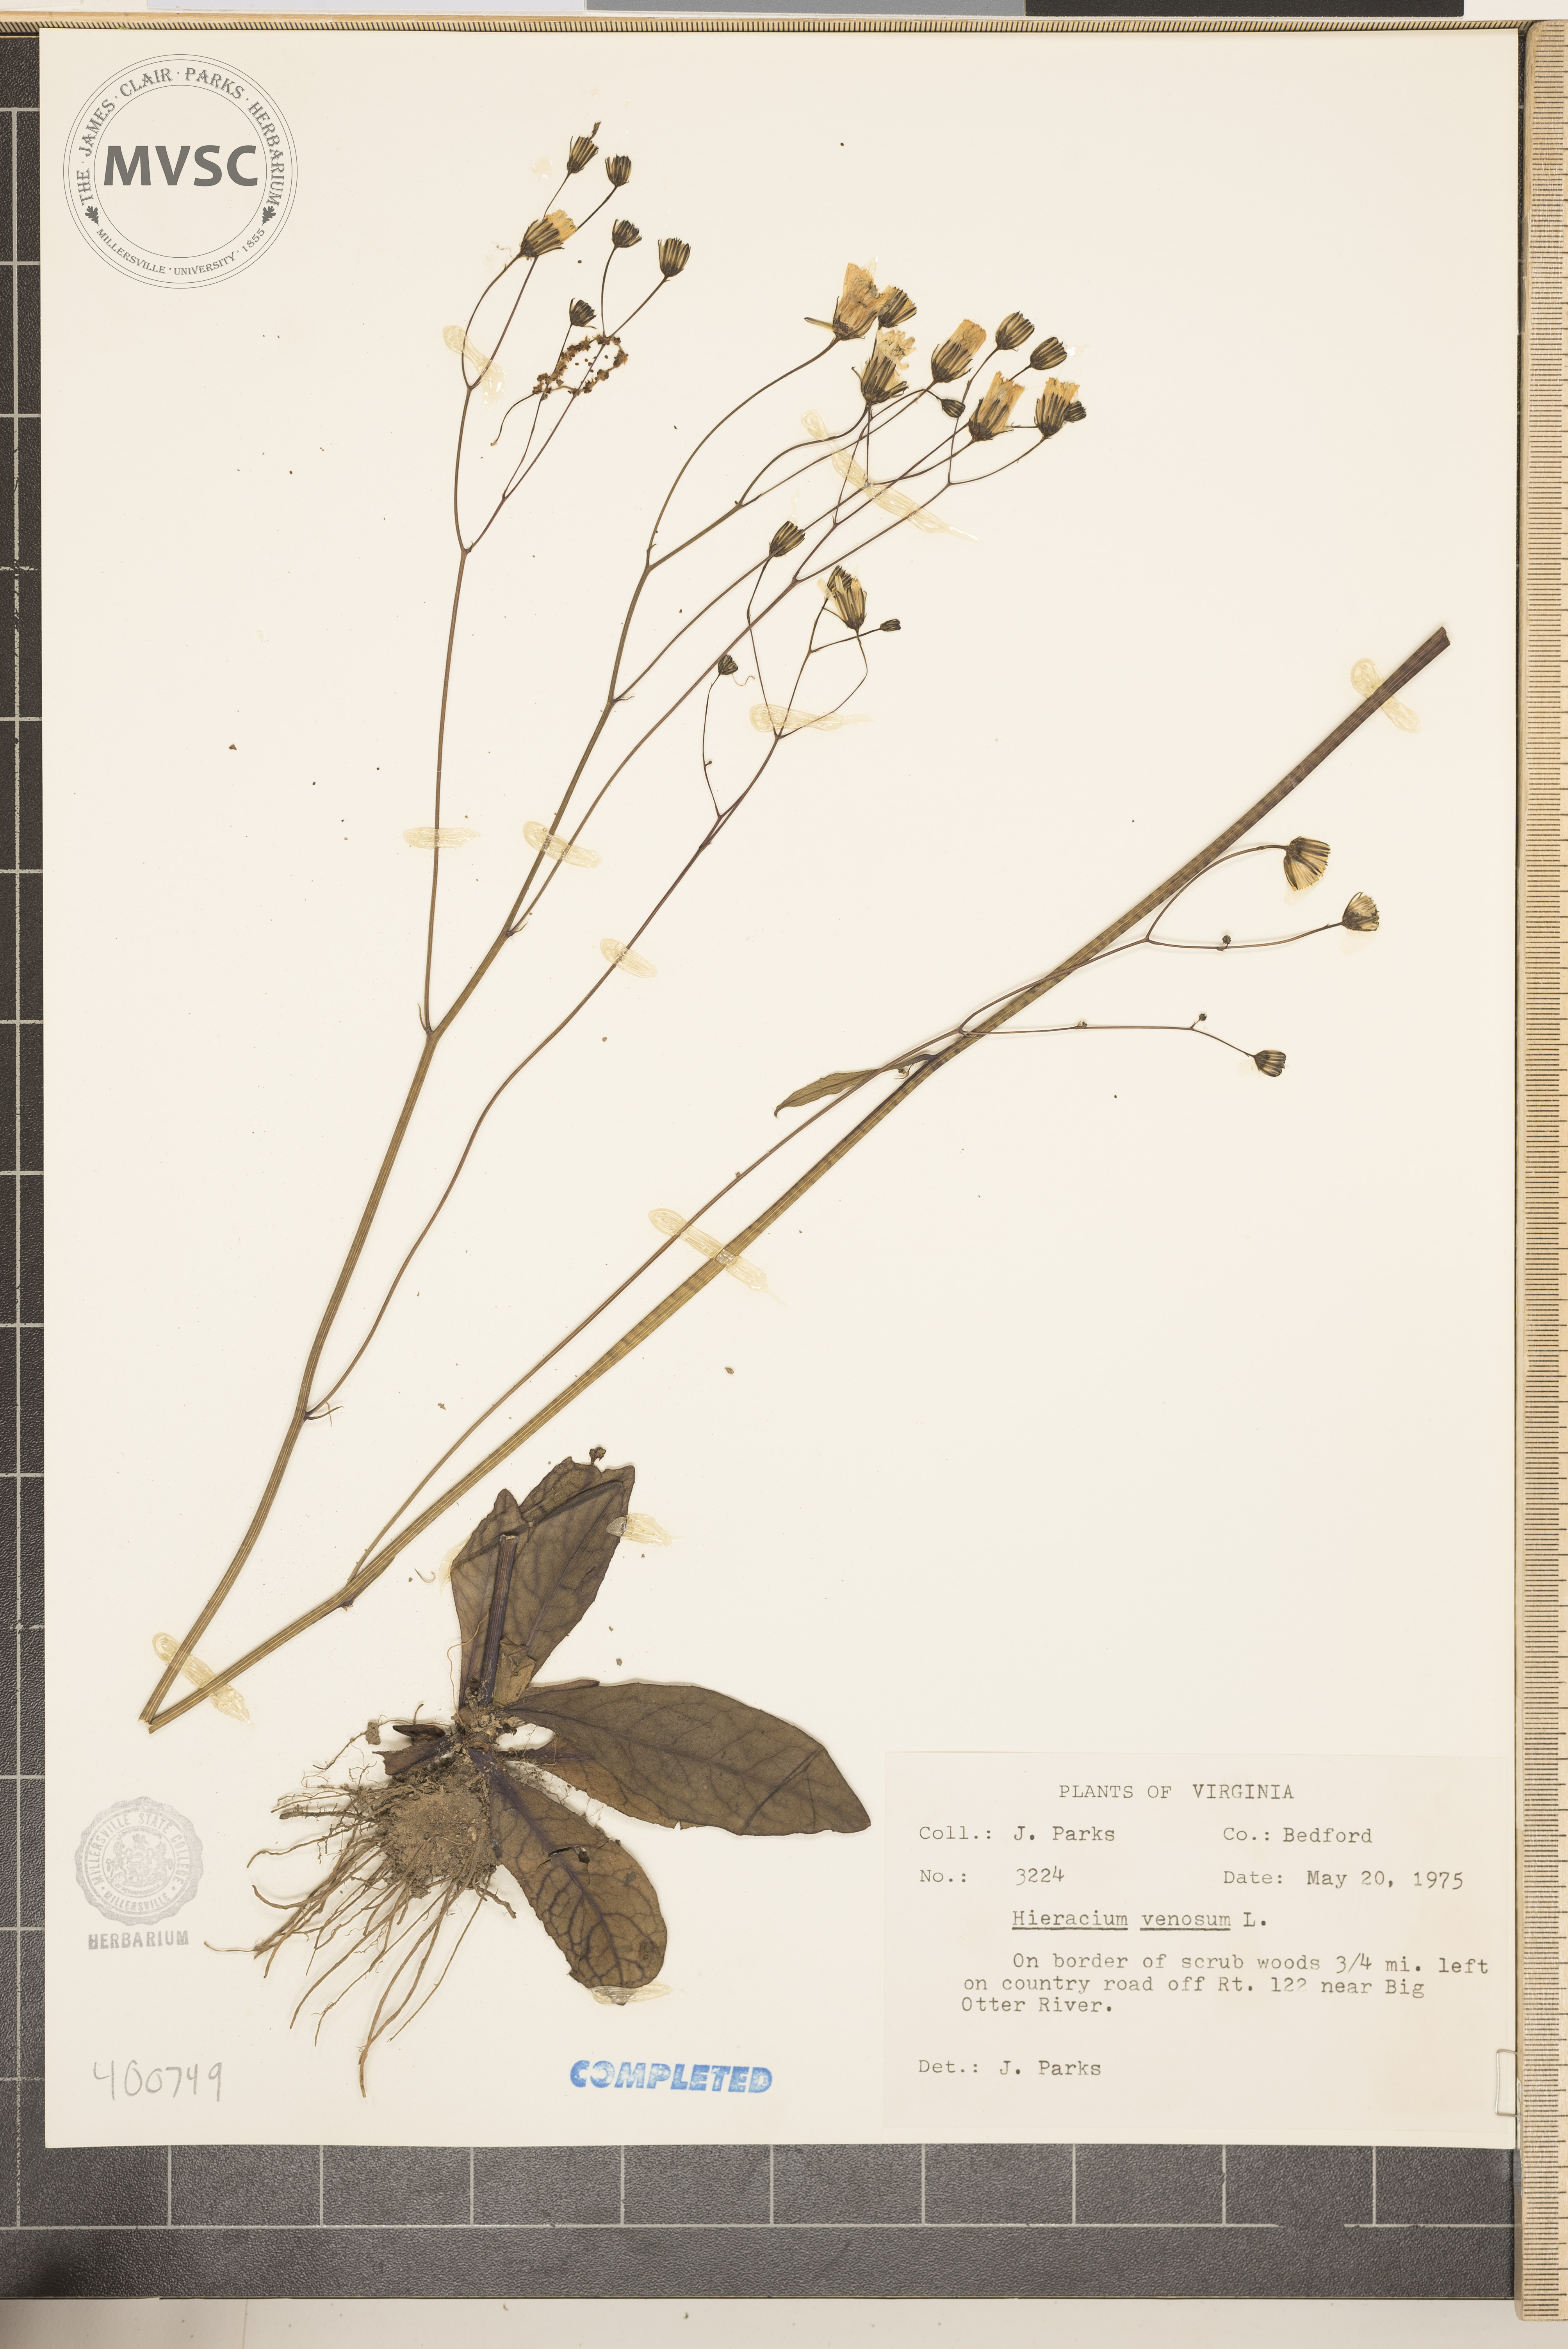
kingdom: Plantae
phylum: Tracheophyta
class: Magnoliopsida
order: Asterales
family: Asteraceae
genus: Hieracium
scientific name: Hieracium venosum
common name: Rattlesnake hawkweed
